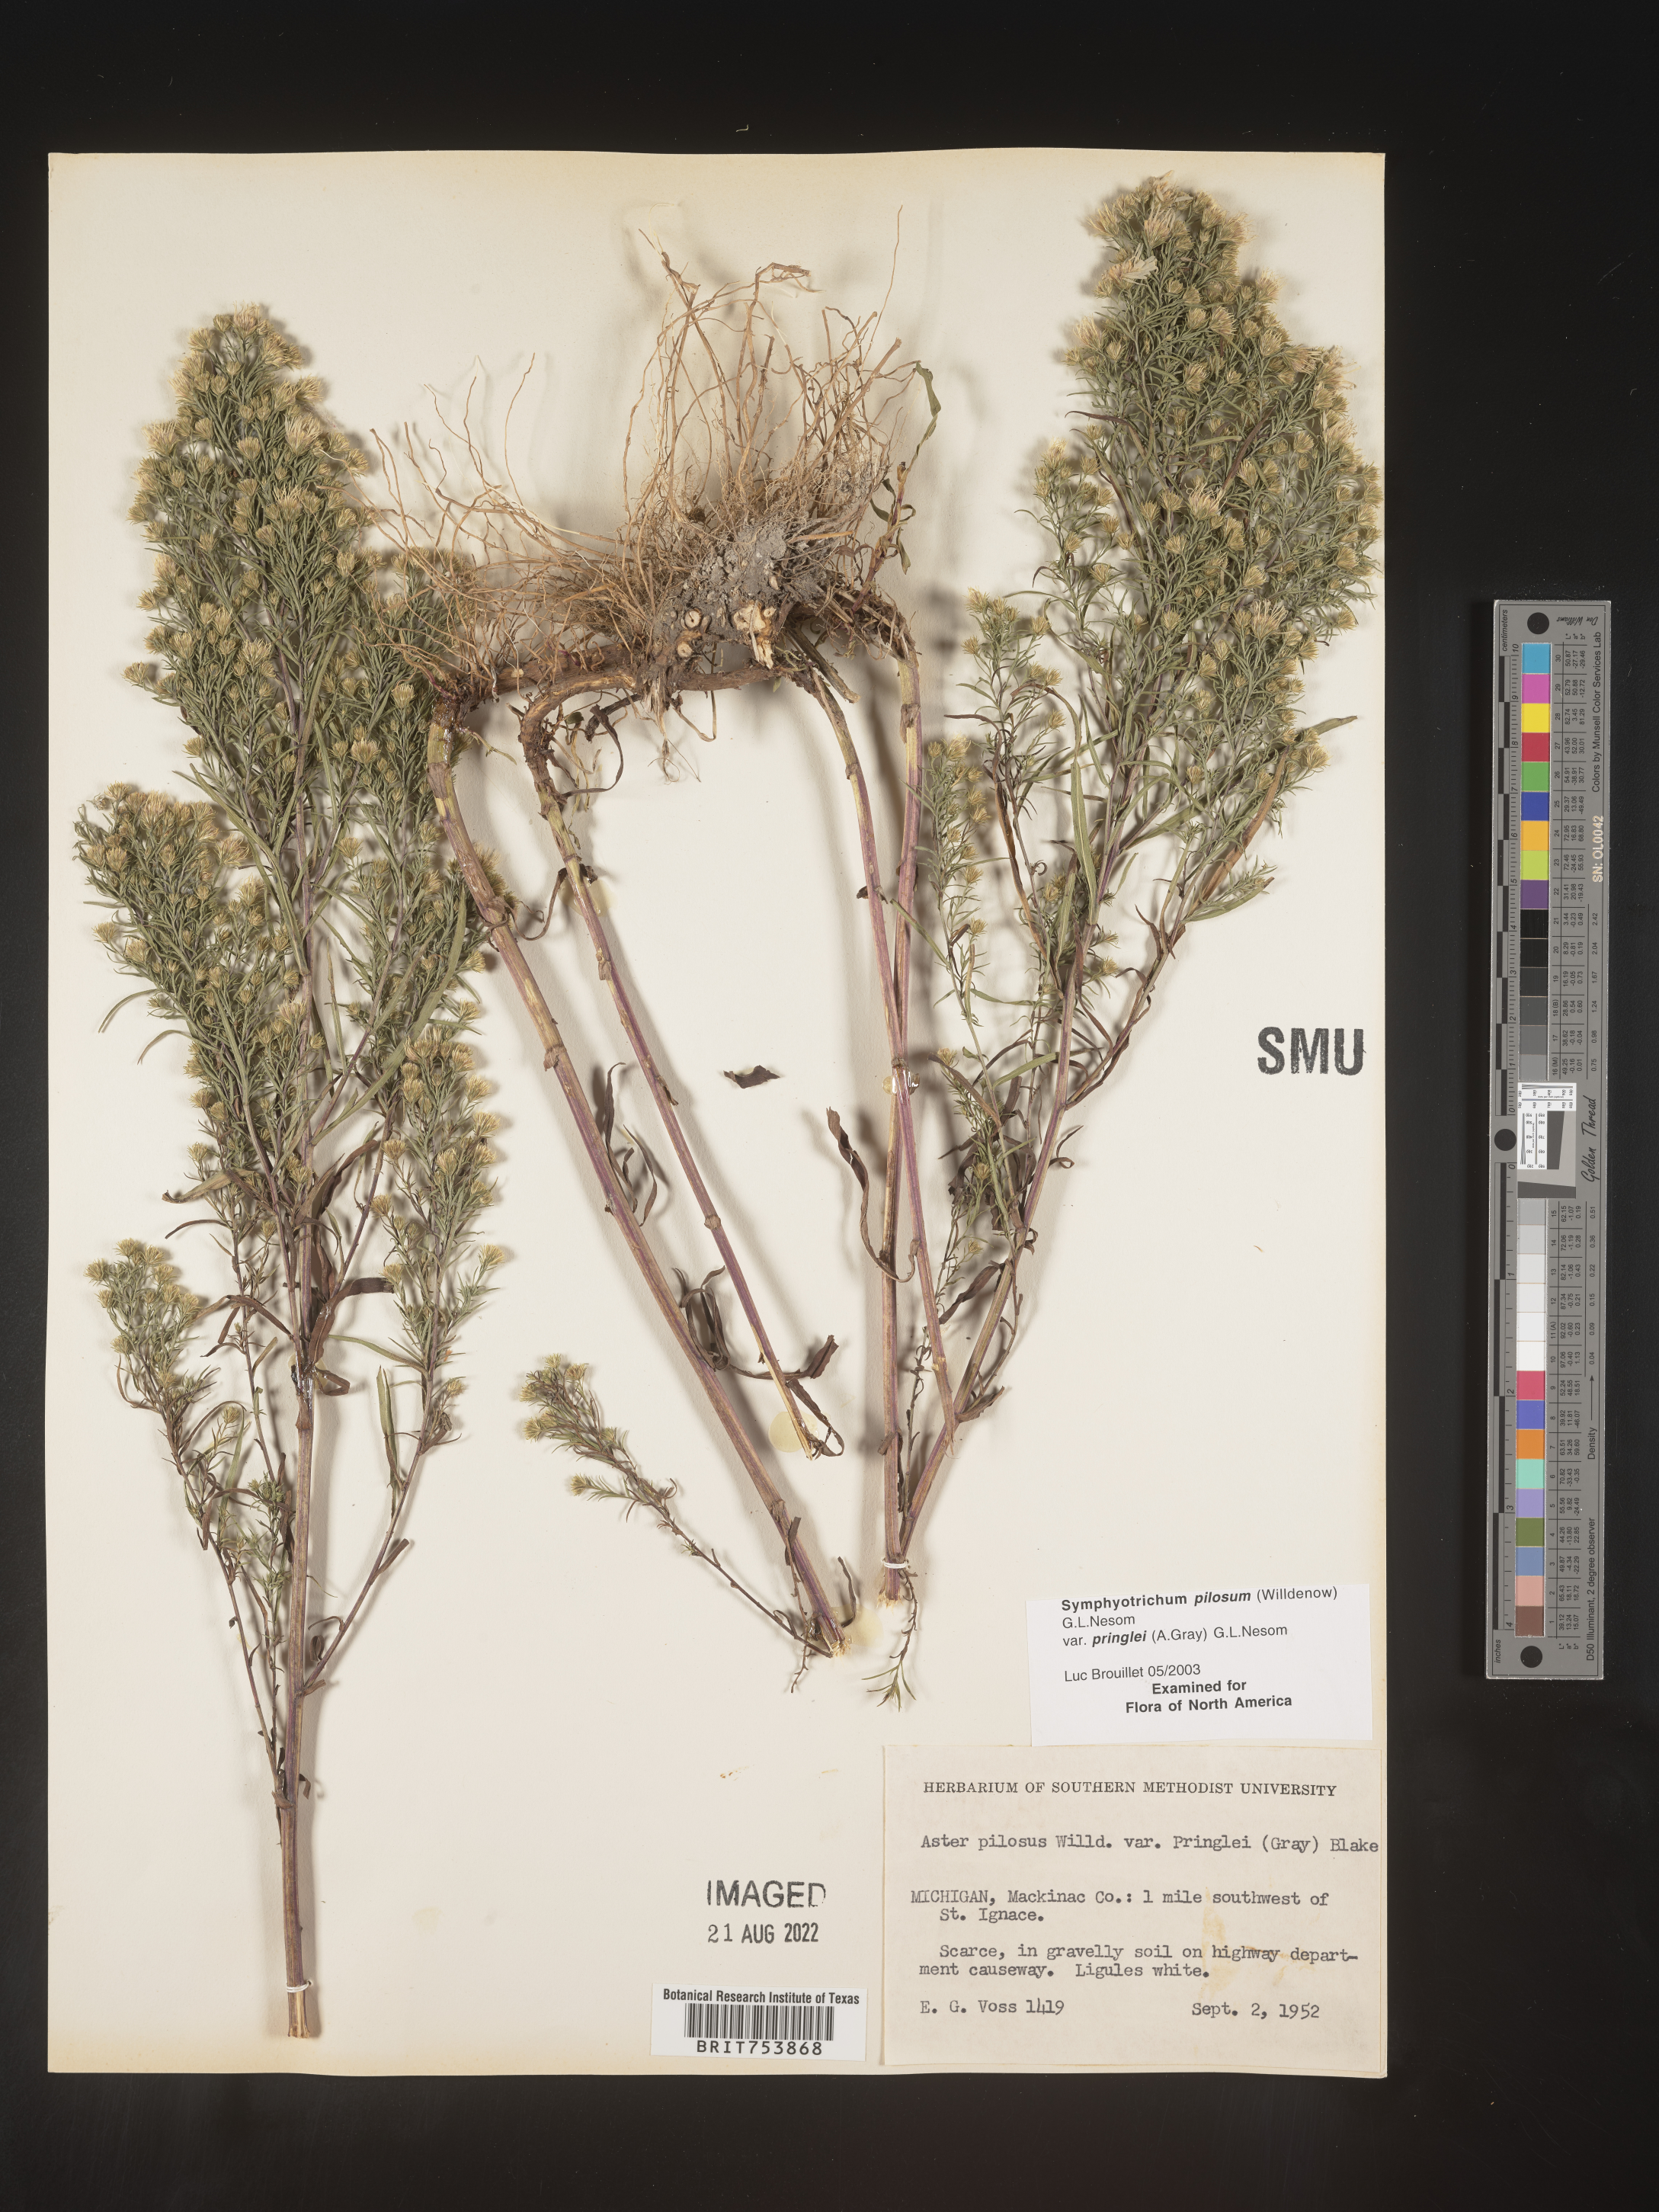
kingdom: Plantae
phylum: Tracheophyta
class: Magnoliopsida
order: Asterales
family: Asteraceae
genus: Symphyotrichum
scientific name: Symphyotrichum pilosum
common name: Awl aster
